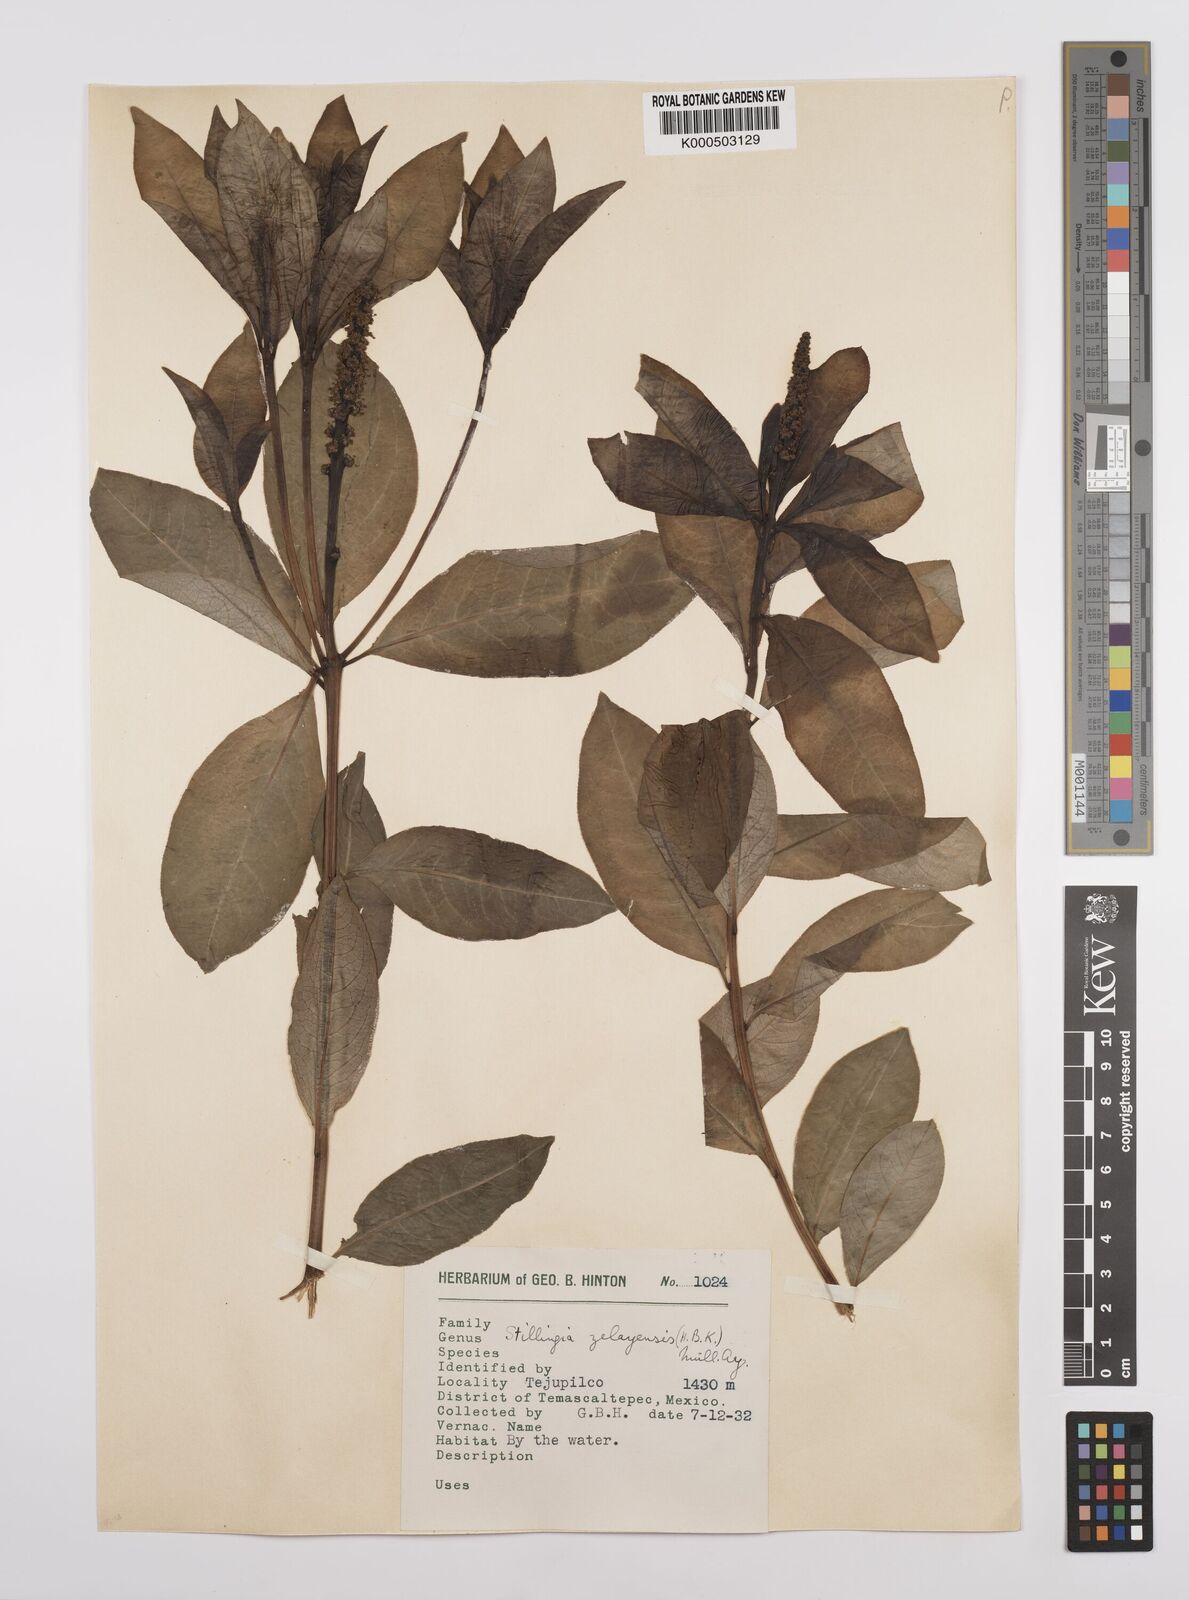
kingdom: Plantae
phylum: Tracheophyta
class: Magnoliopsida
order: Malpighiales
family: Euphorbiaceae
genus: Stillingia
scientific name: Stillingia
